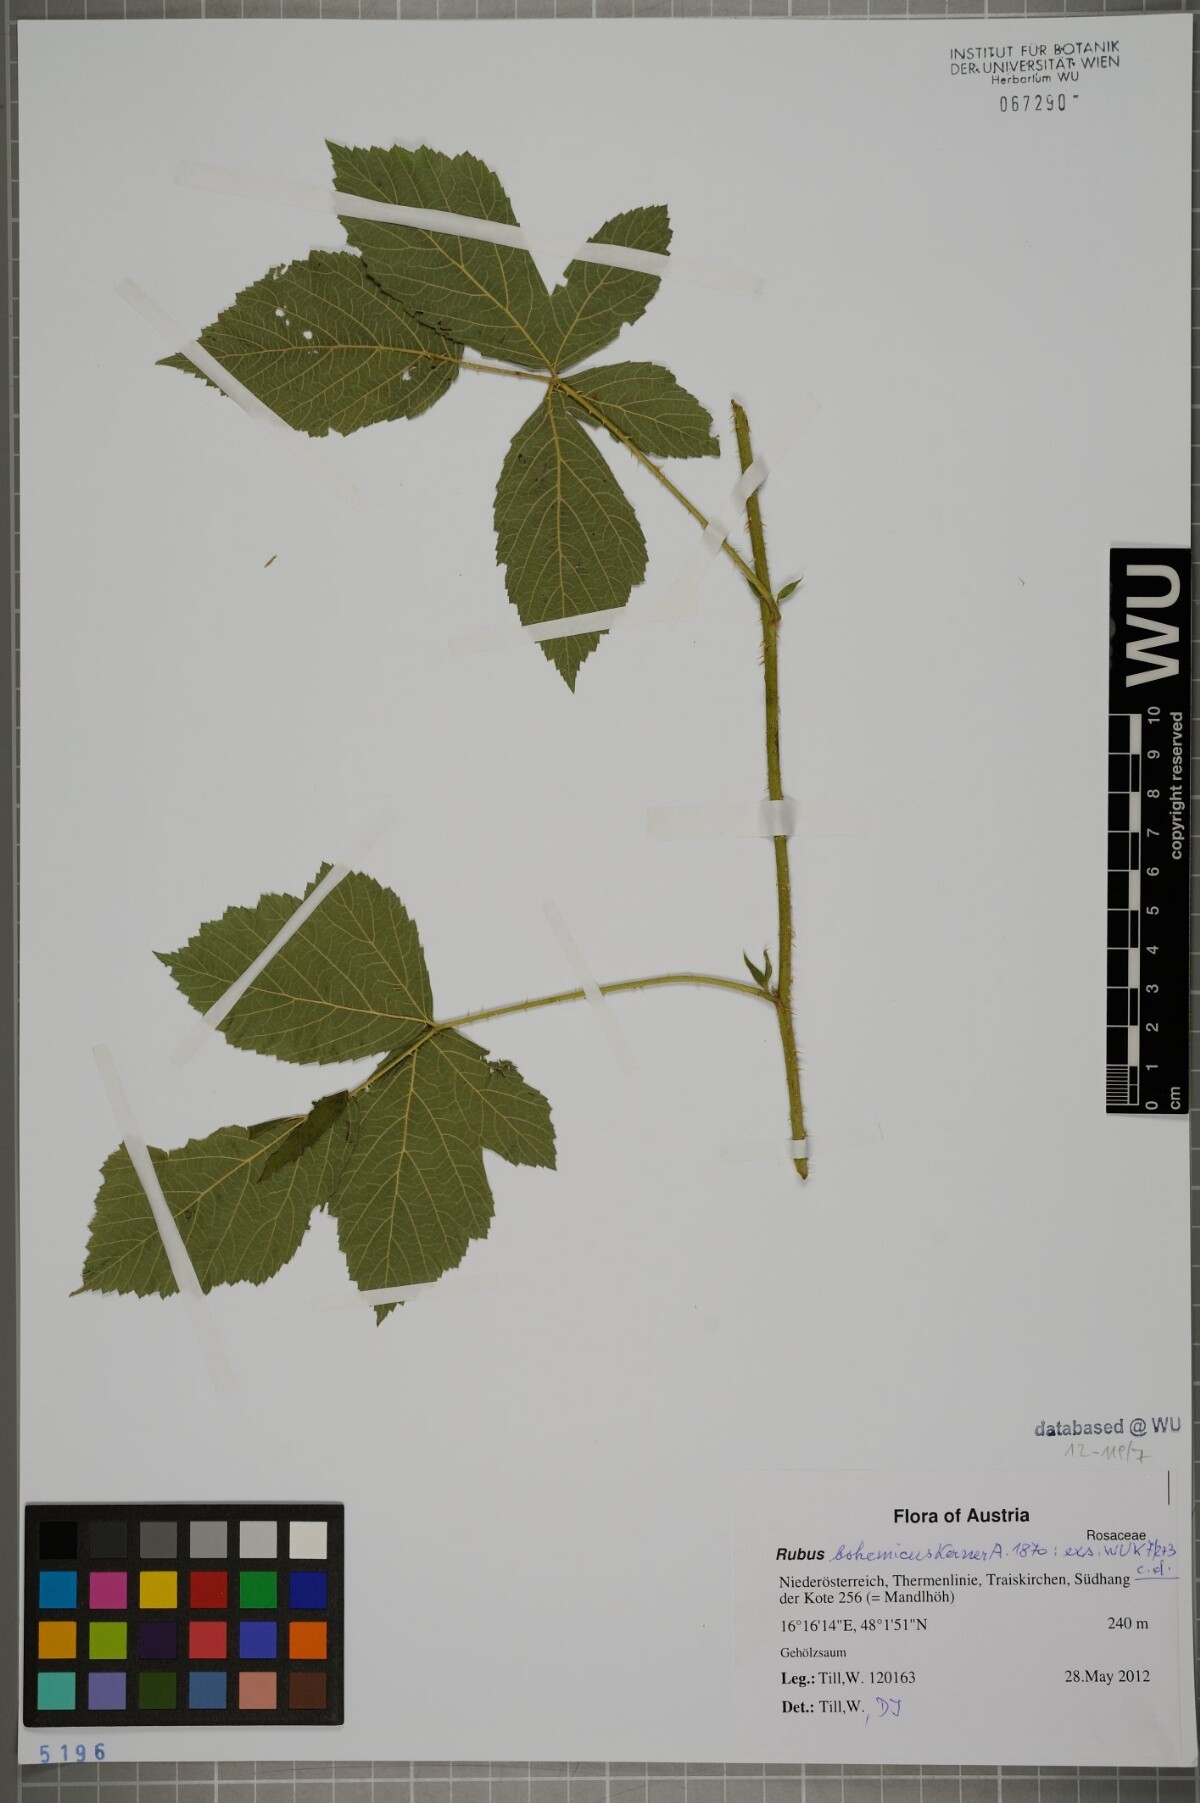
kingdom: Plantae
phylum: Tracheophyta
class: Magnoliopsida
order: Rosales
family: Rosaceae
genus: Rubus
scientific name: Rubus
